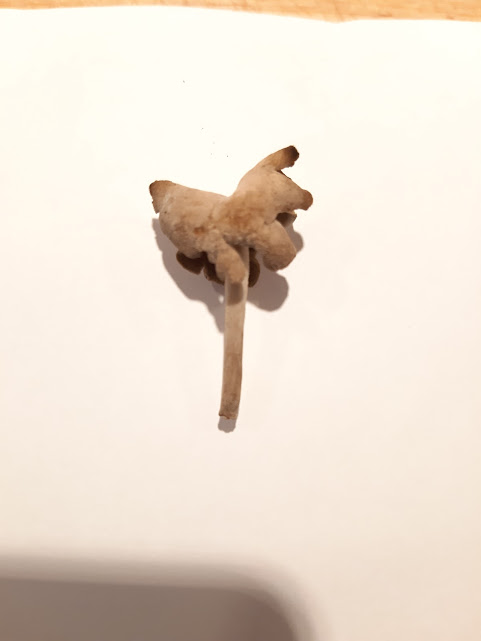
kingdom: Fungi
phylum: Ascomycota
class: Pezizomycetes
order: Pezizales
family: Helvellaceae
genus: Helvella
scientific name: Helvella
